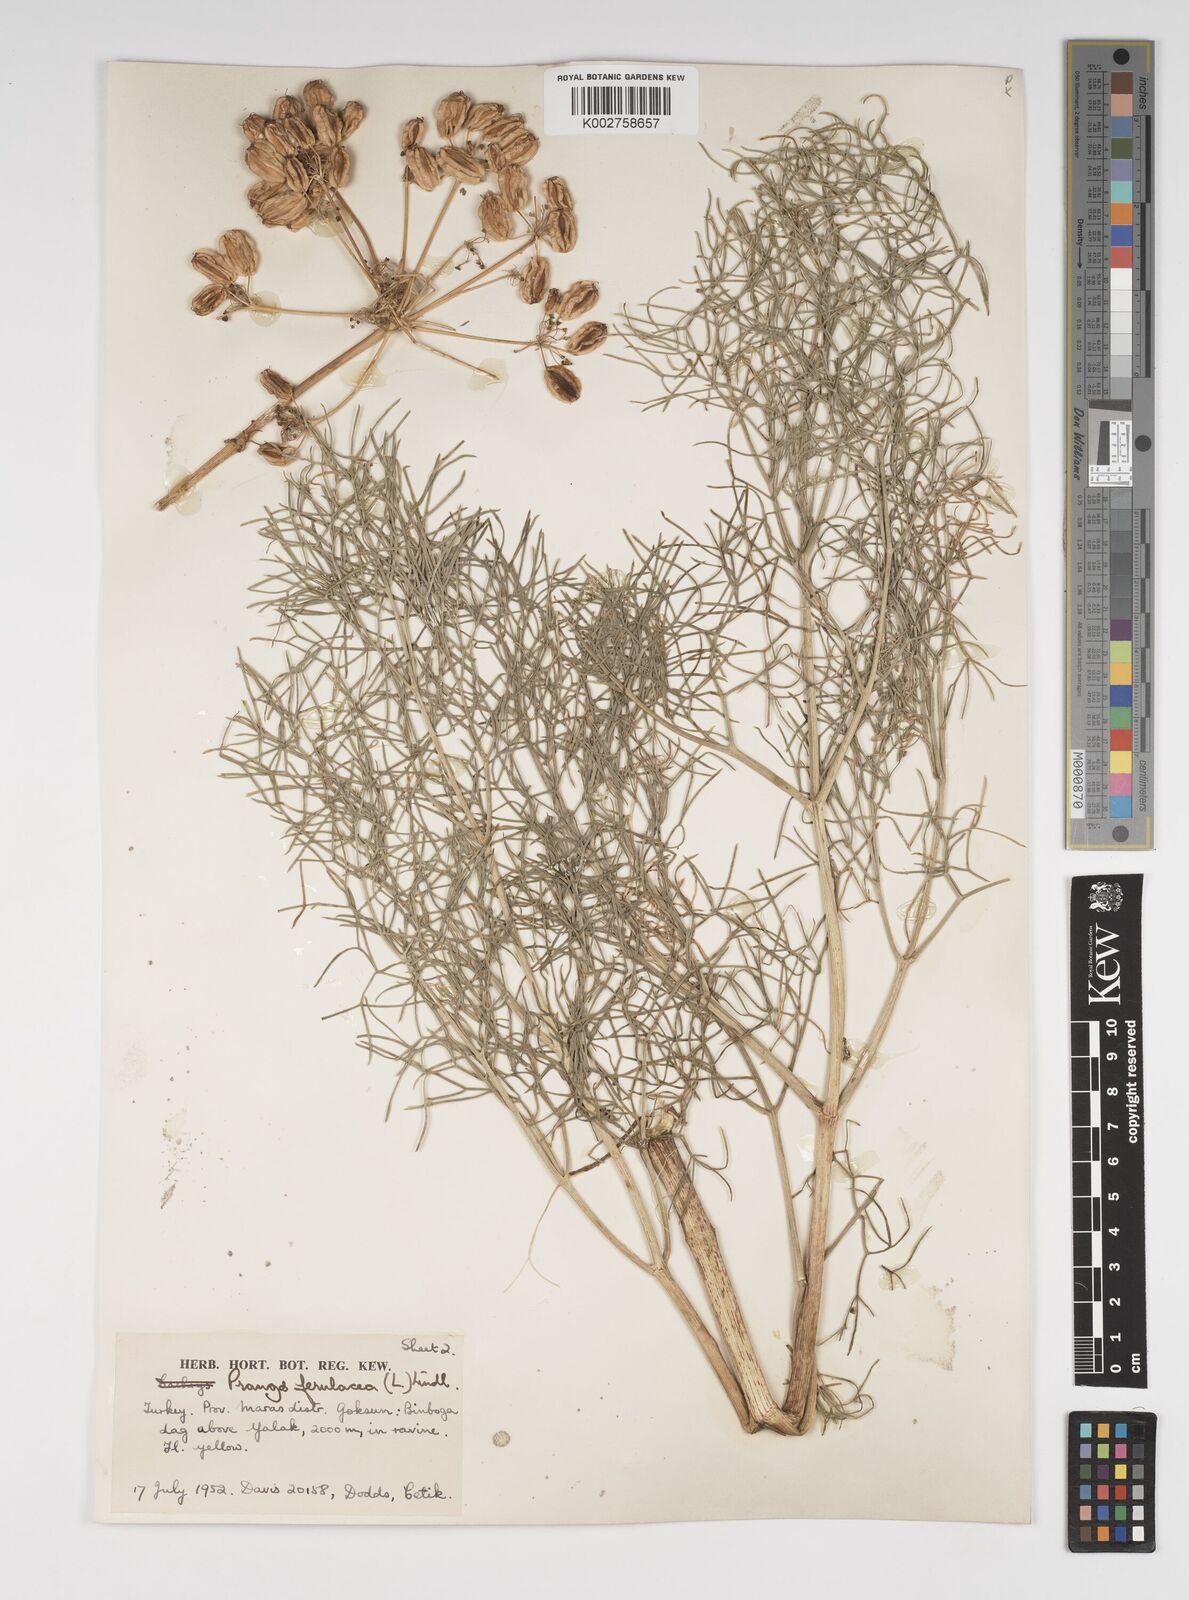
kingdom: Plantae
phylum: Tracheophyta
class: Magnoliopsida
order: Apiales
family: Apiaceae
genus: Prangos
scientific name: Prangos ferulacea
